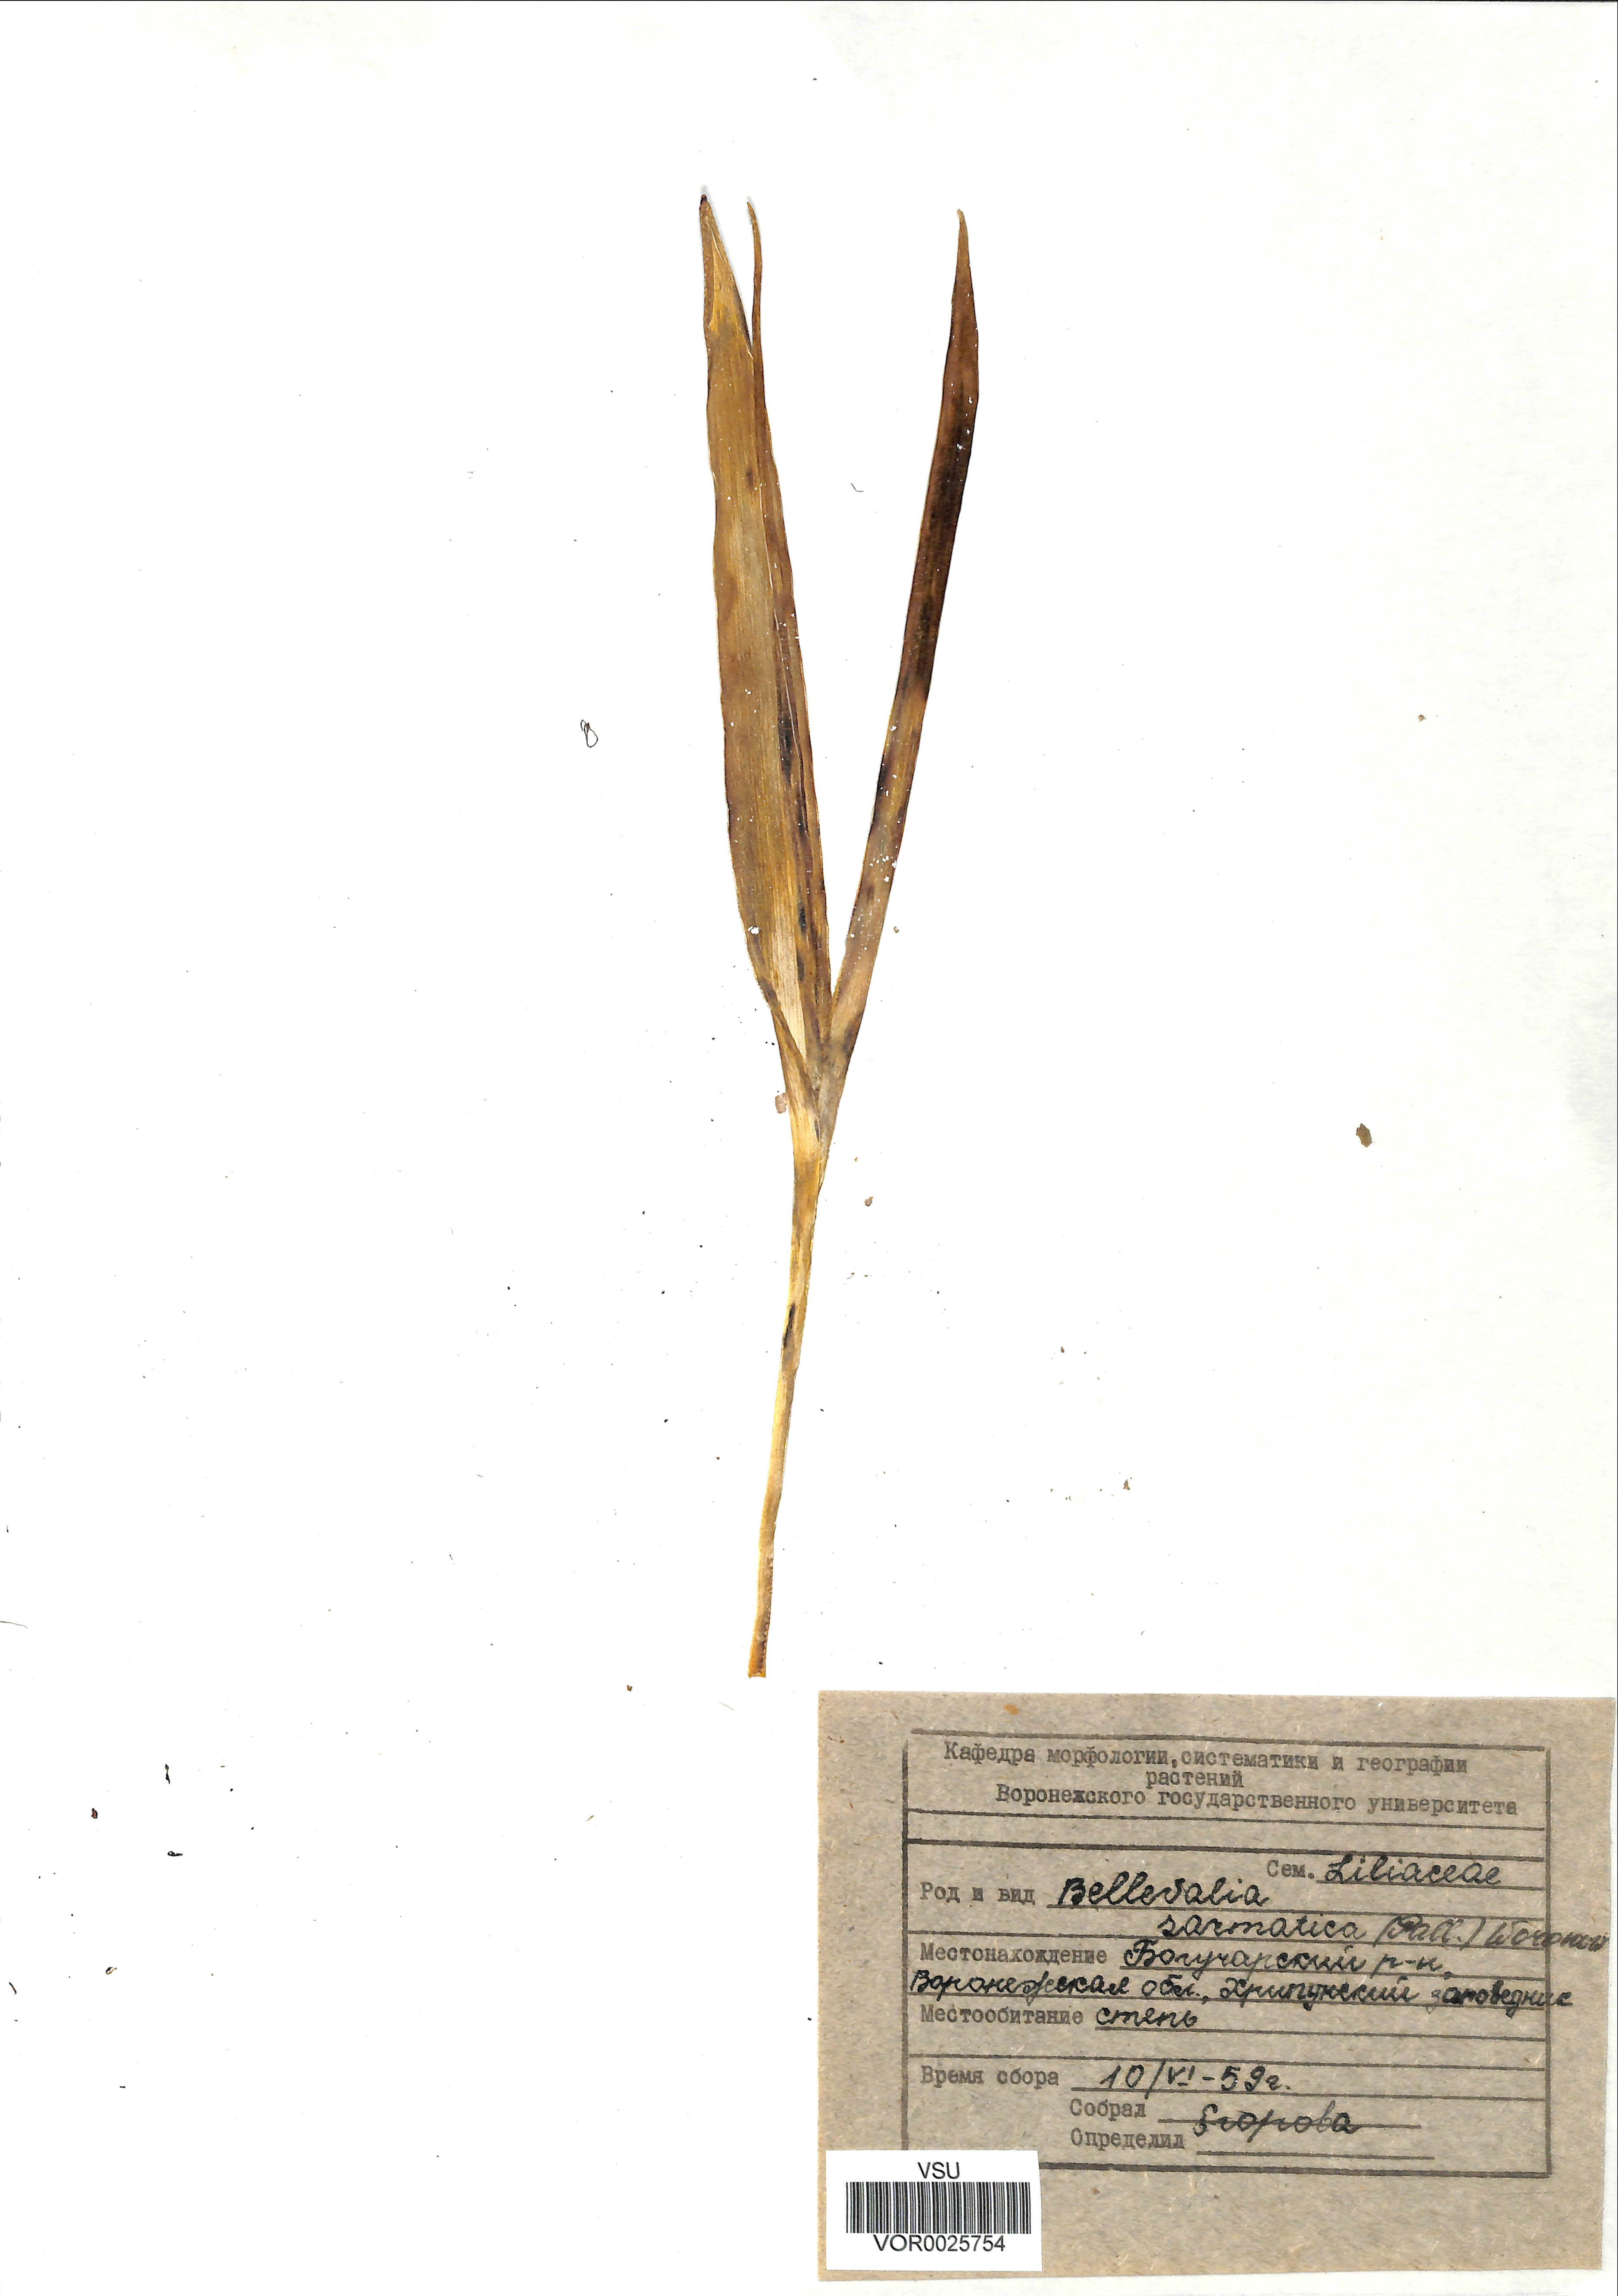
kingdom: Plantae
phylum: Tracheophyta
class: Liliopsida
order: Asparagales
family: Asparagaceae
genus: Bellevalia
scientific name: Bellevalia speciosa
